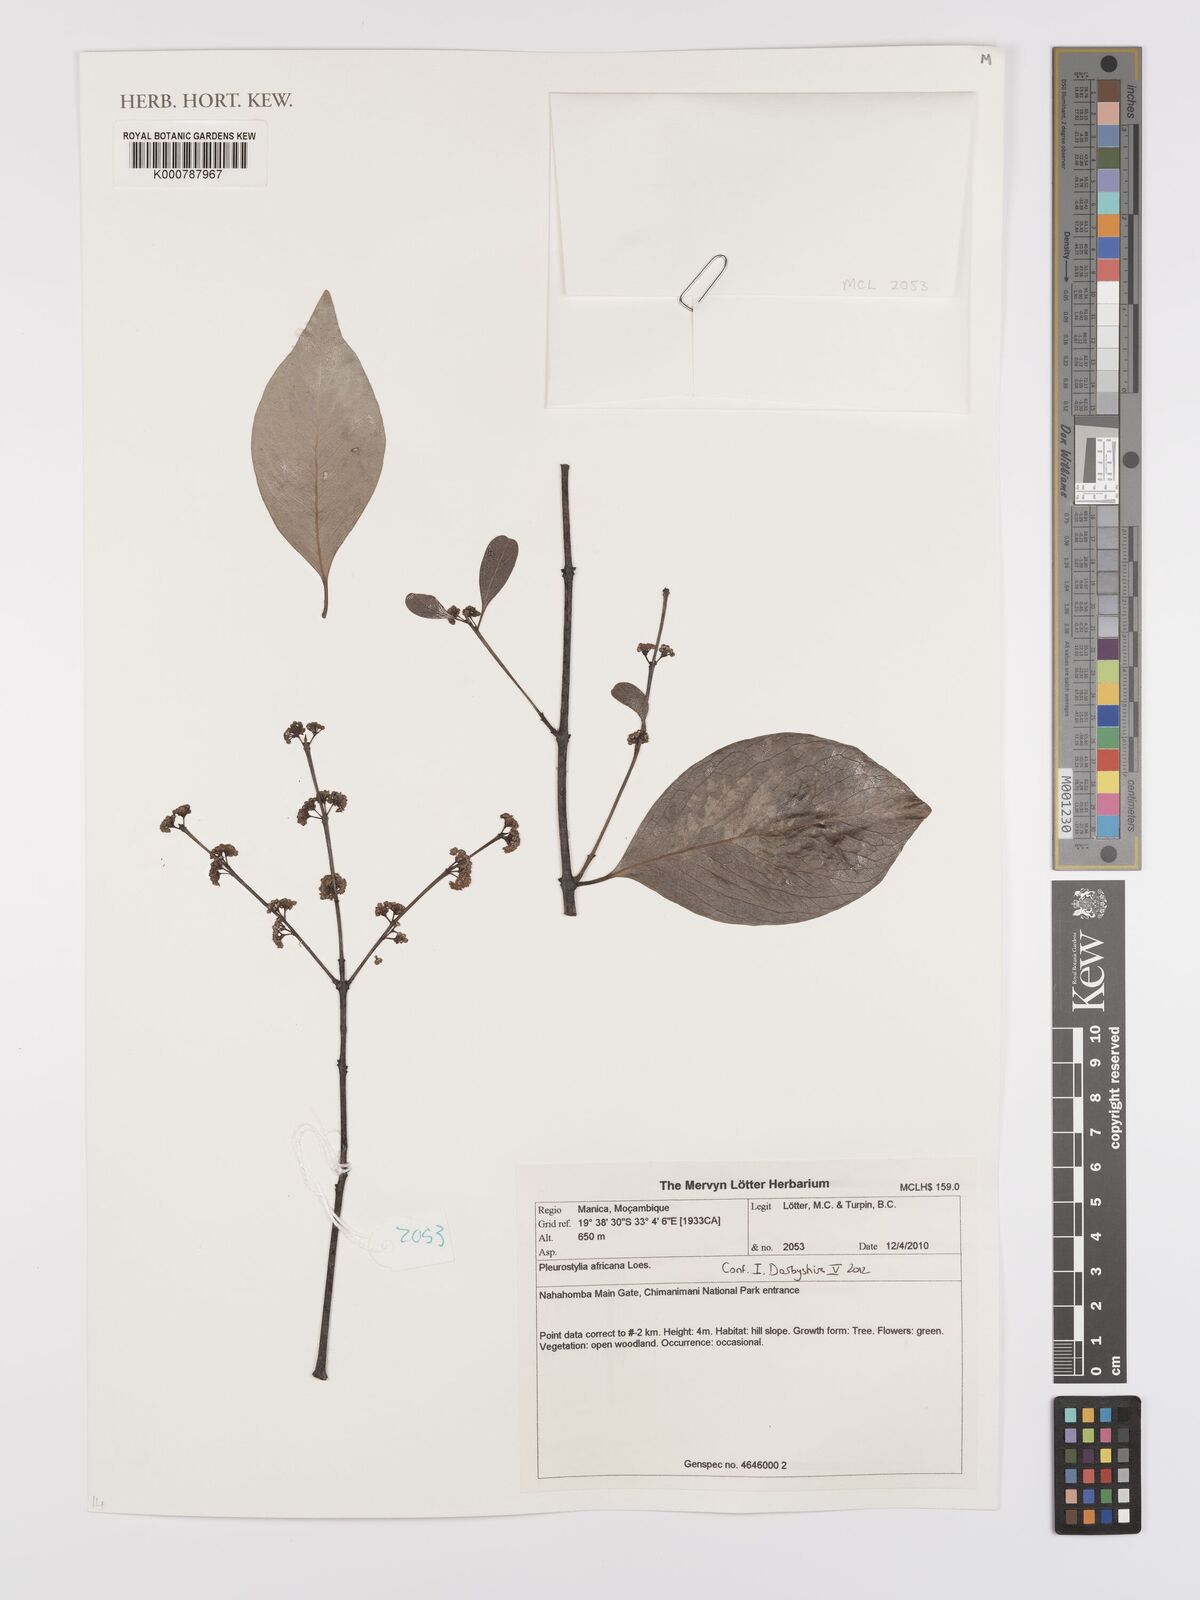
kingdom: Plantae
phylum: Tracheophyta
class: Magnoliopsida
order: Celastrales
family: Celastraceae
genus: Pleurostylia
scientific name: Pleurostylia africana
